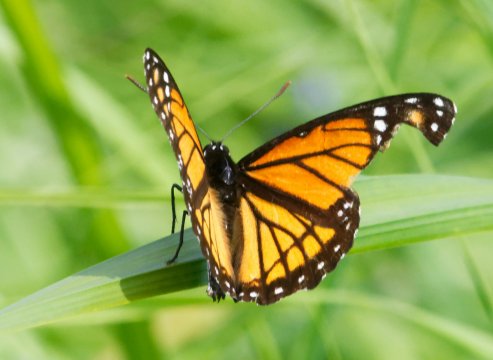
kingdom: Animalia
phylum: Arthropoda
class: Insecta
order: Lepidoptera
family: Nymphalidae
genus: Limenitis
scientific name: Limenitis archippus
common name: Viceroy
